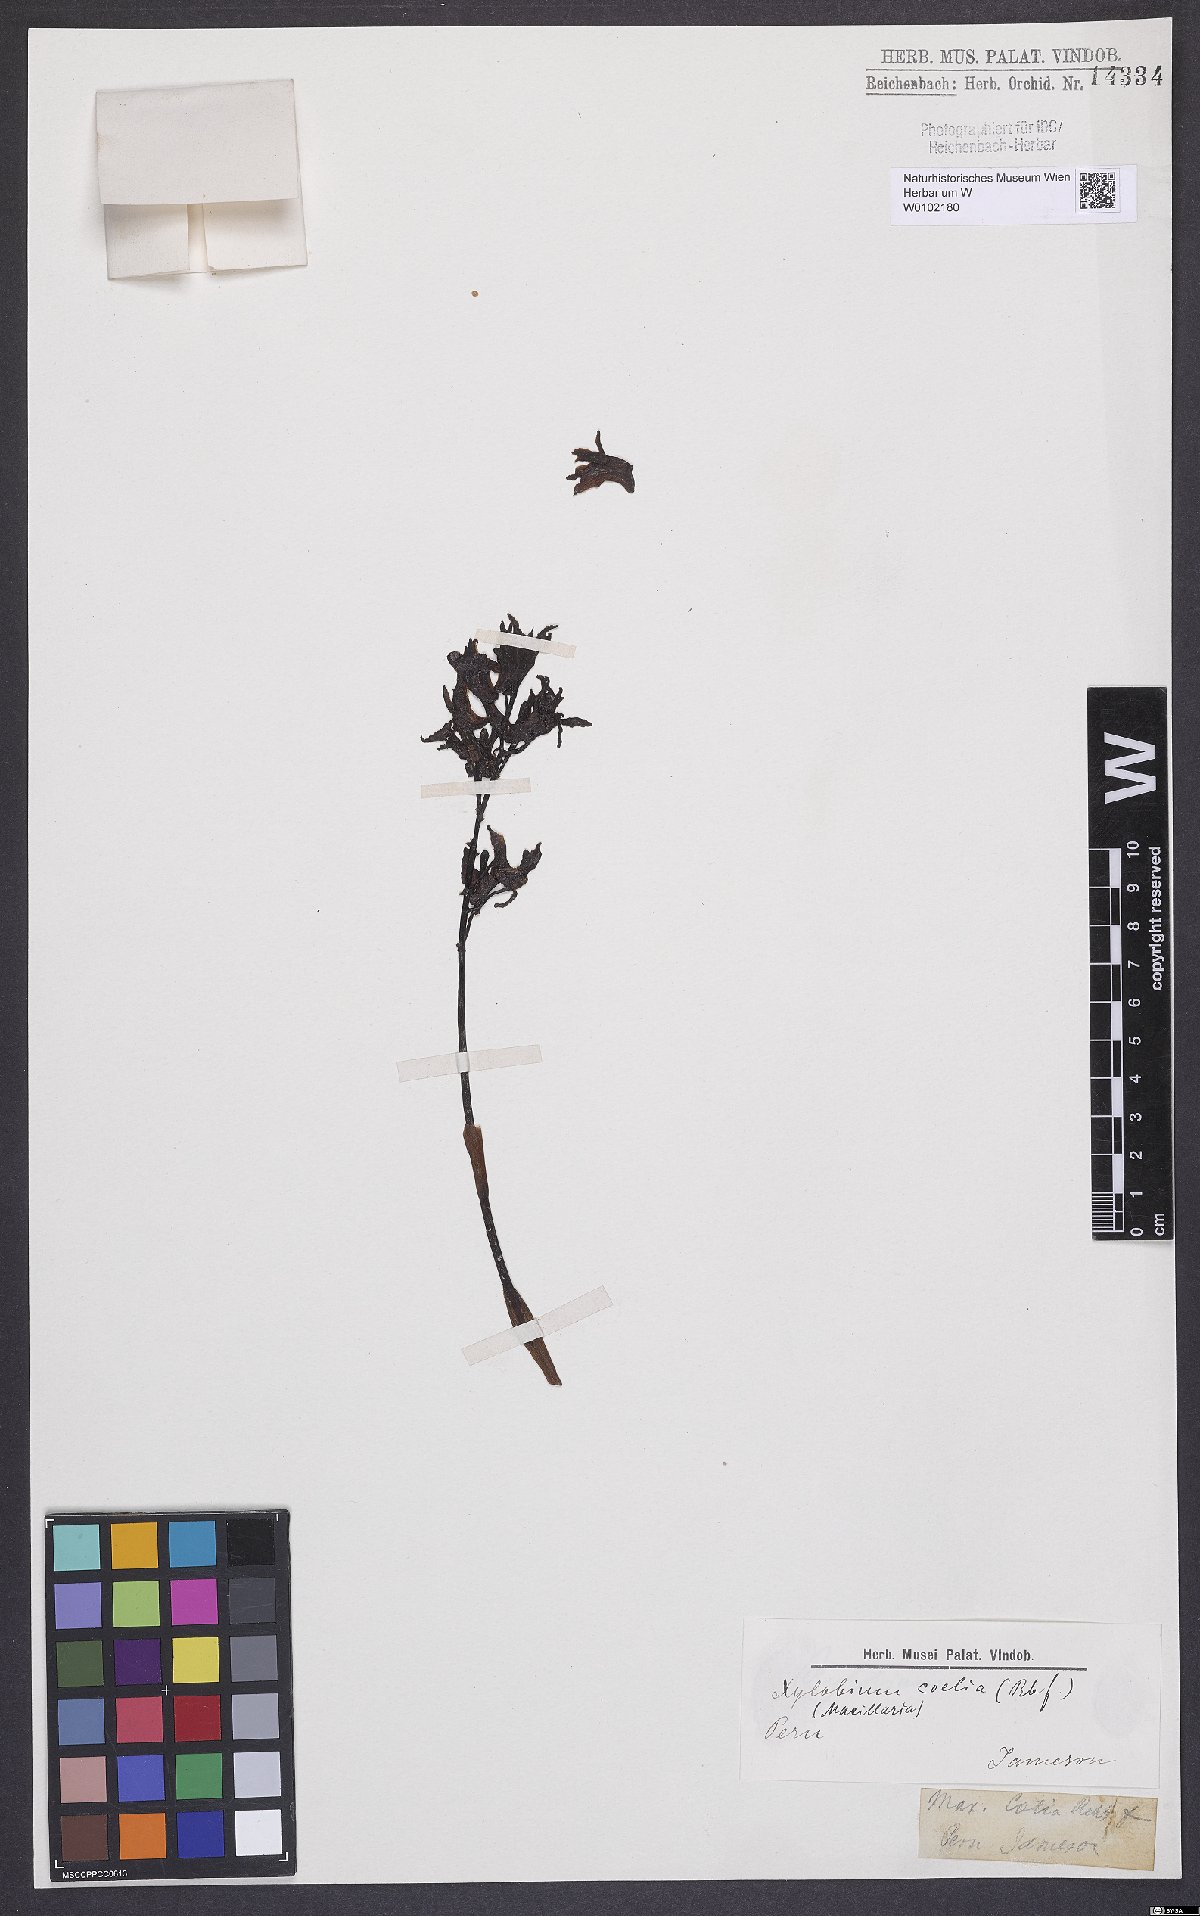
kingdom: Plantae
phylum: Tracheophyta
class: Liliopsida
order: Asparagales
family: Orchidaceae
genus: Xylobium
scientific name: Xylobium coelia
